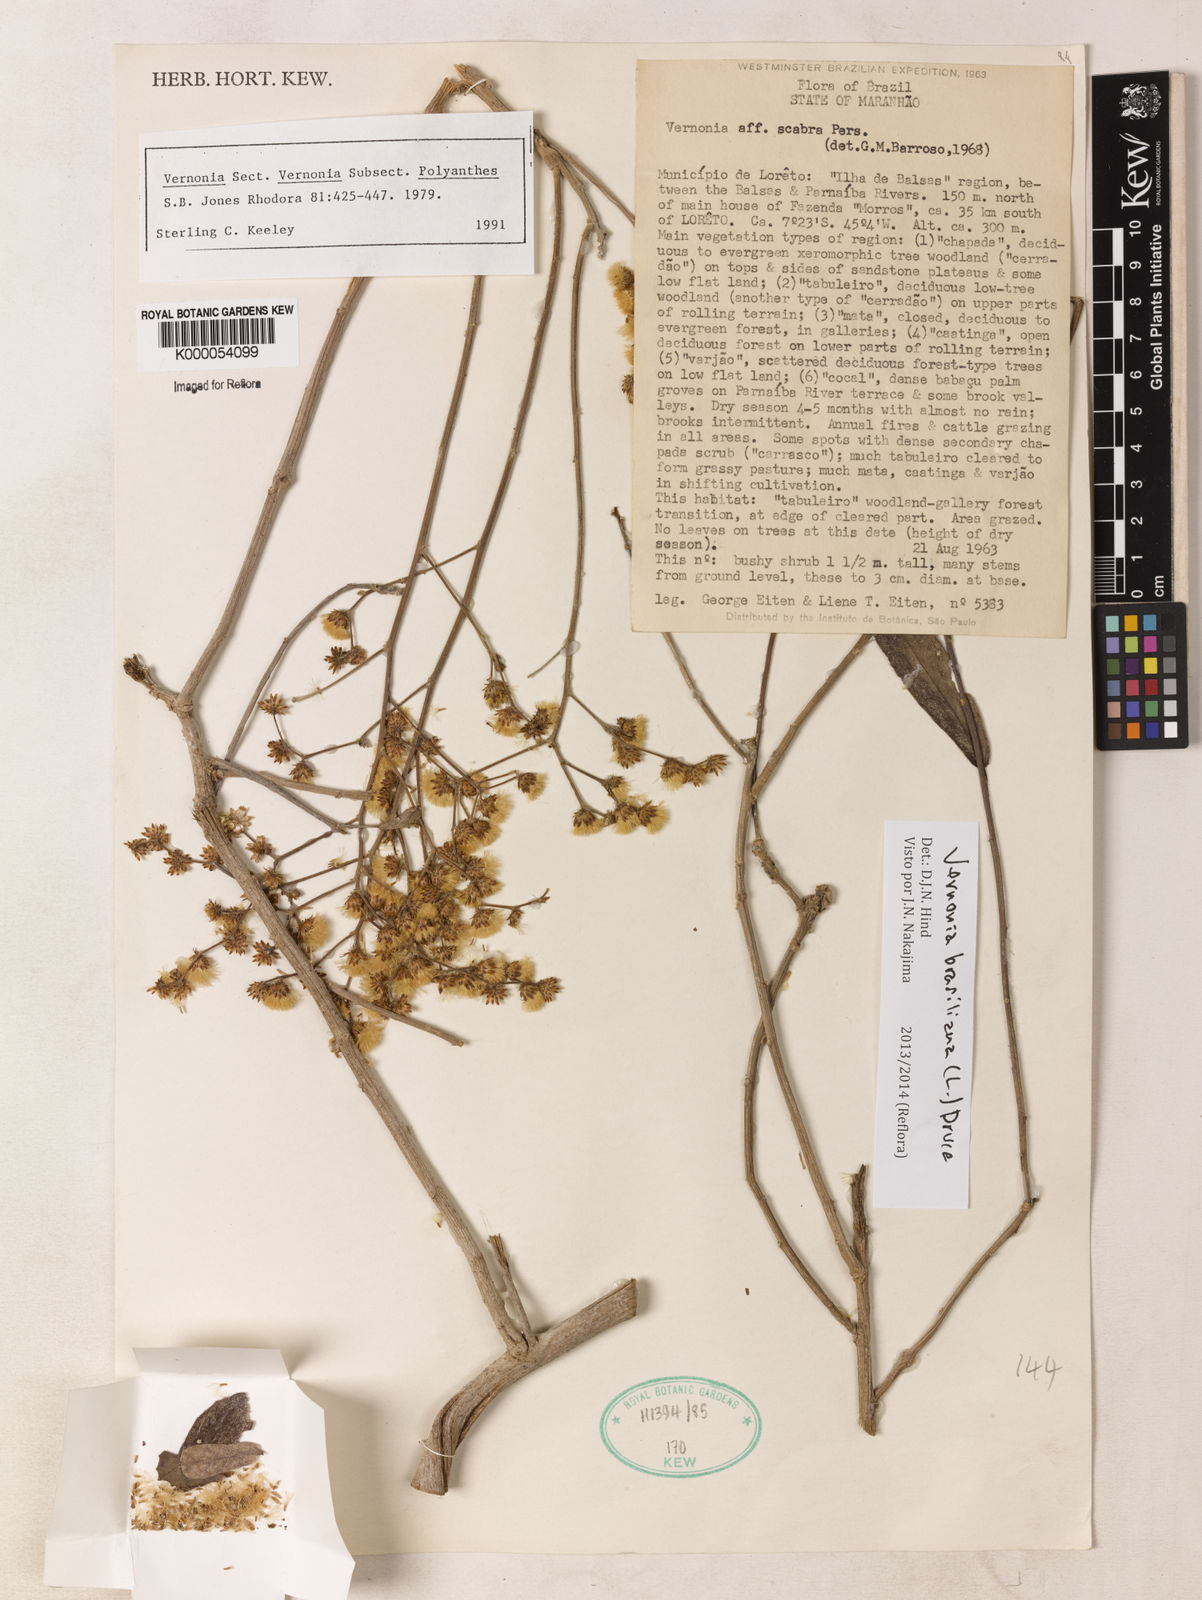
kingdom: Plantae
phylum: Tracheophyta
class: Magnoliopsida
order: Asterales
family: Asteraceae
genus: Vernonanthura
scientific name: Vernonanthura brasiliana
